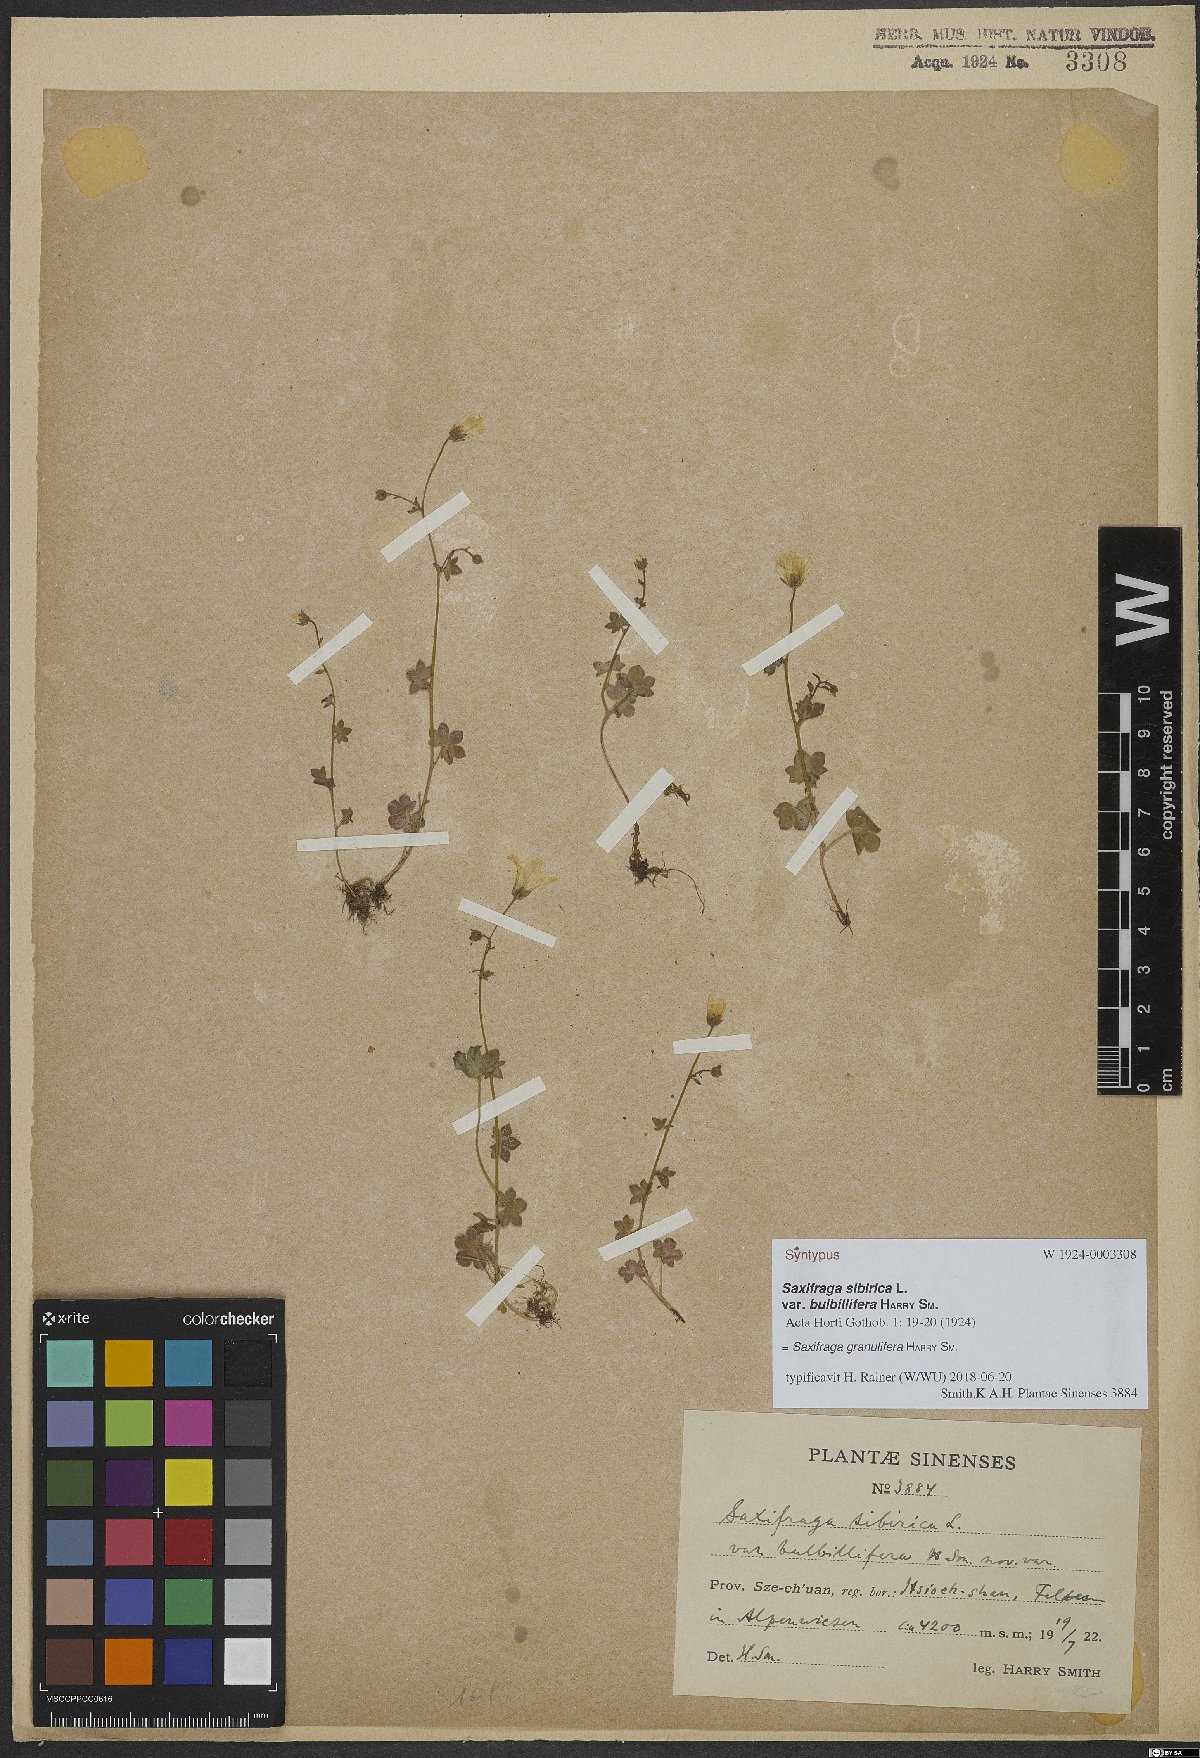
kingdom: Plantae
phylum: Tracheophyta
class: Magnoliopsida
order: Saxifragales
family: Saxifragaceae
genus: Saxifraga
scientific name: Saxifraga granulifera
